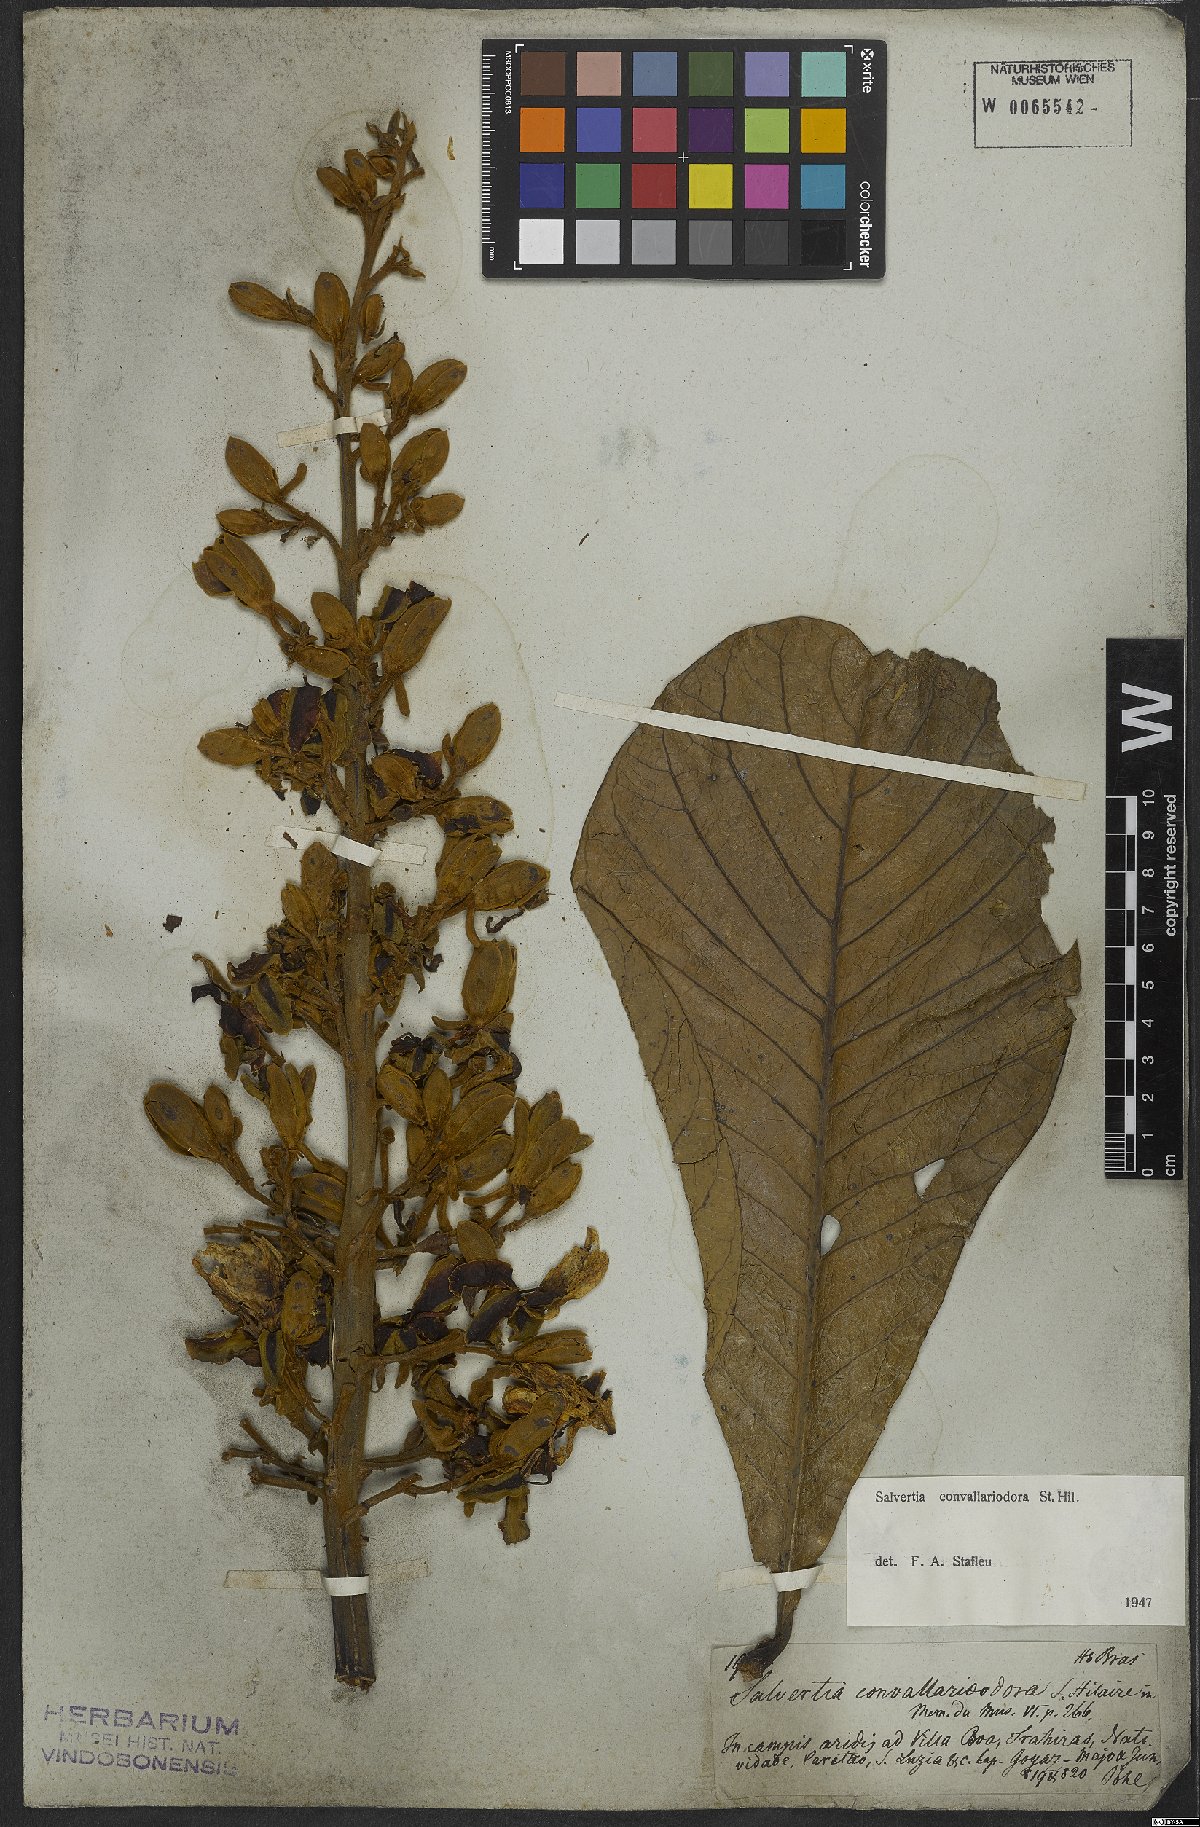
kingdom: Plantae
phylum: Tracheophyta
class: Magnoliopsida
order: Myrtales
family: Vochysiaceae
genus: Salvertia
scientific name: Salvertia convallariodora
